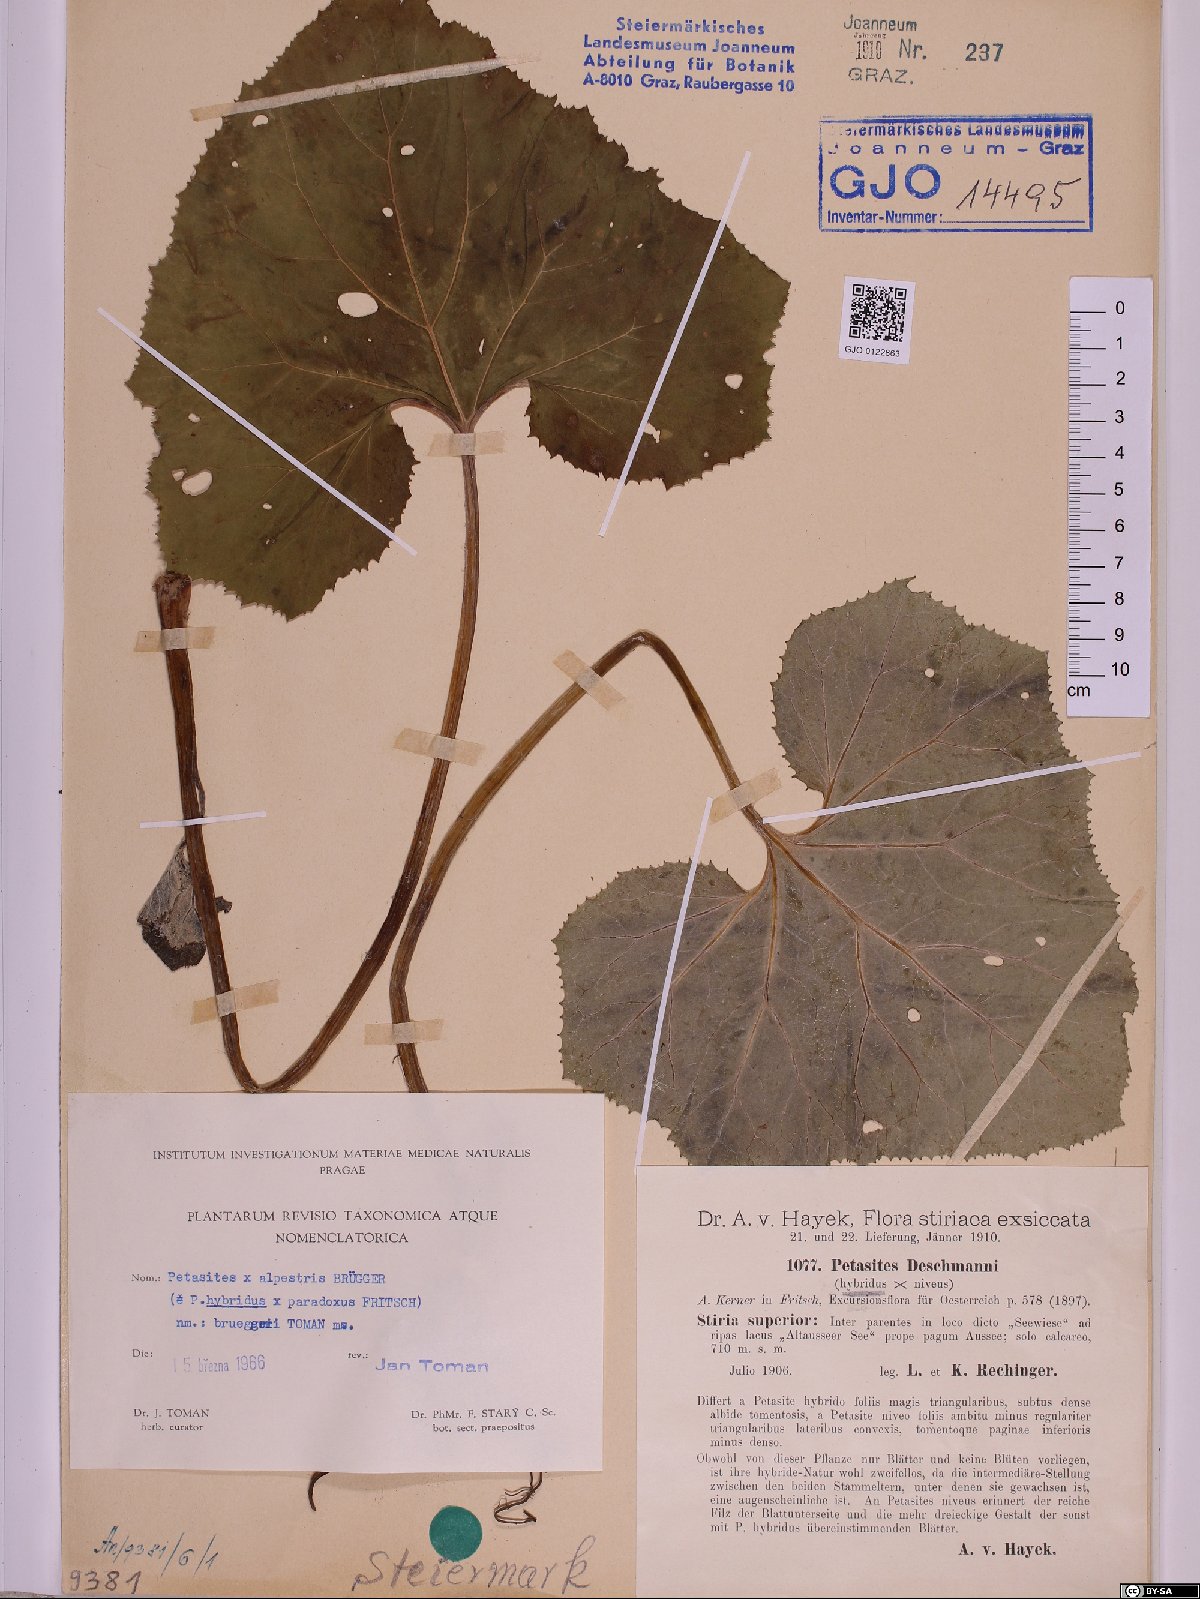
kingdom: Plantae
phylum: Tracheophyta
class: Magnoliopsida
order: Asterales
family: Asteraceae
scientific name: Asteraceae
